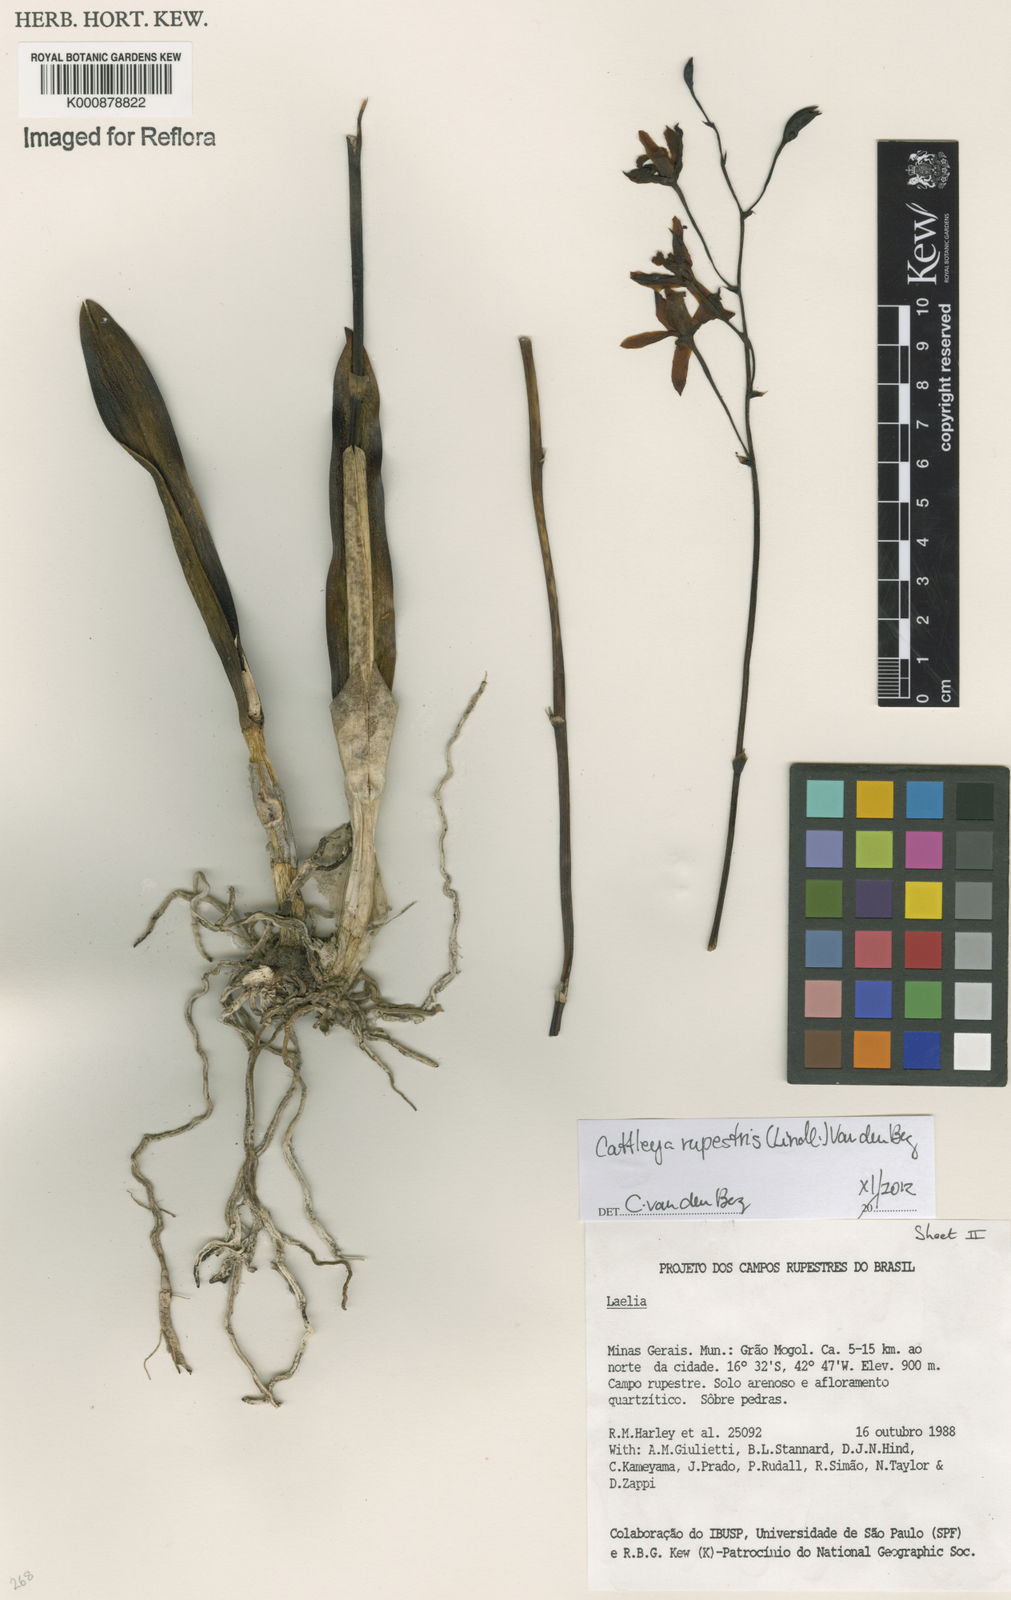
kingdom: Plantae
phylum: Tracheophyta
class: Liliopsida
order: Asparagales
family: Orchidaceae
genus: Cattleya
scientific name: Cattleya rupestris
